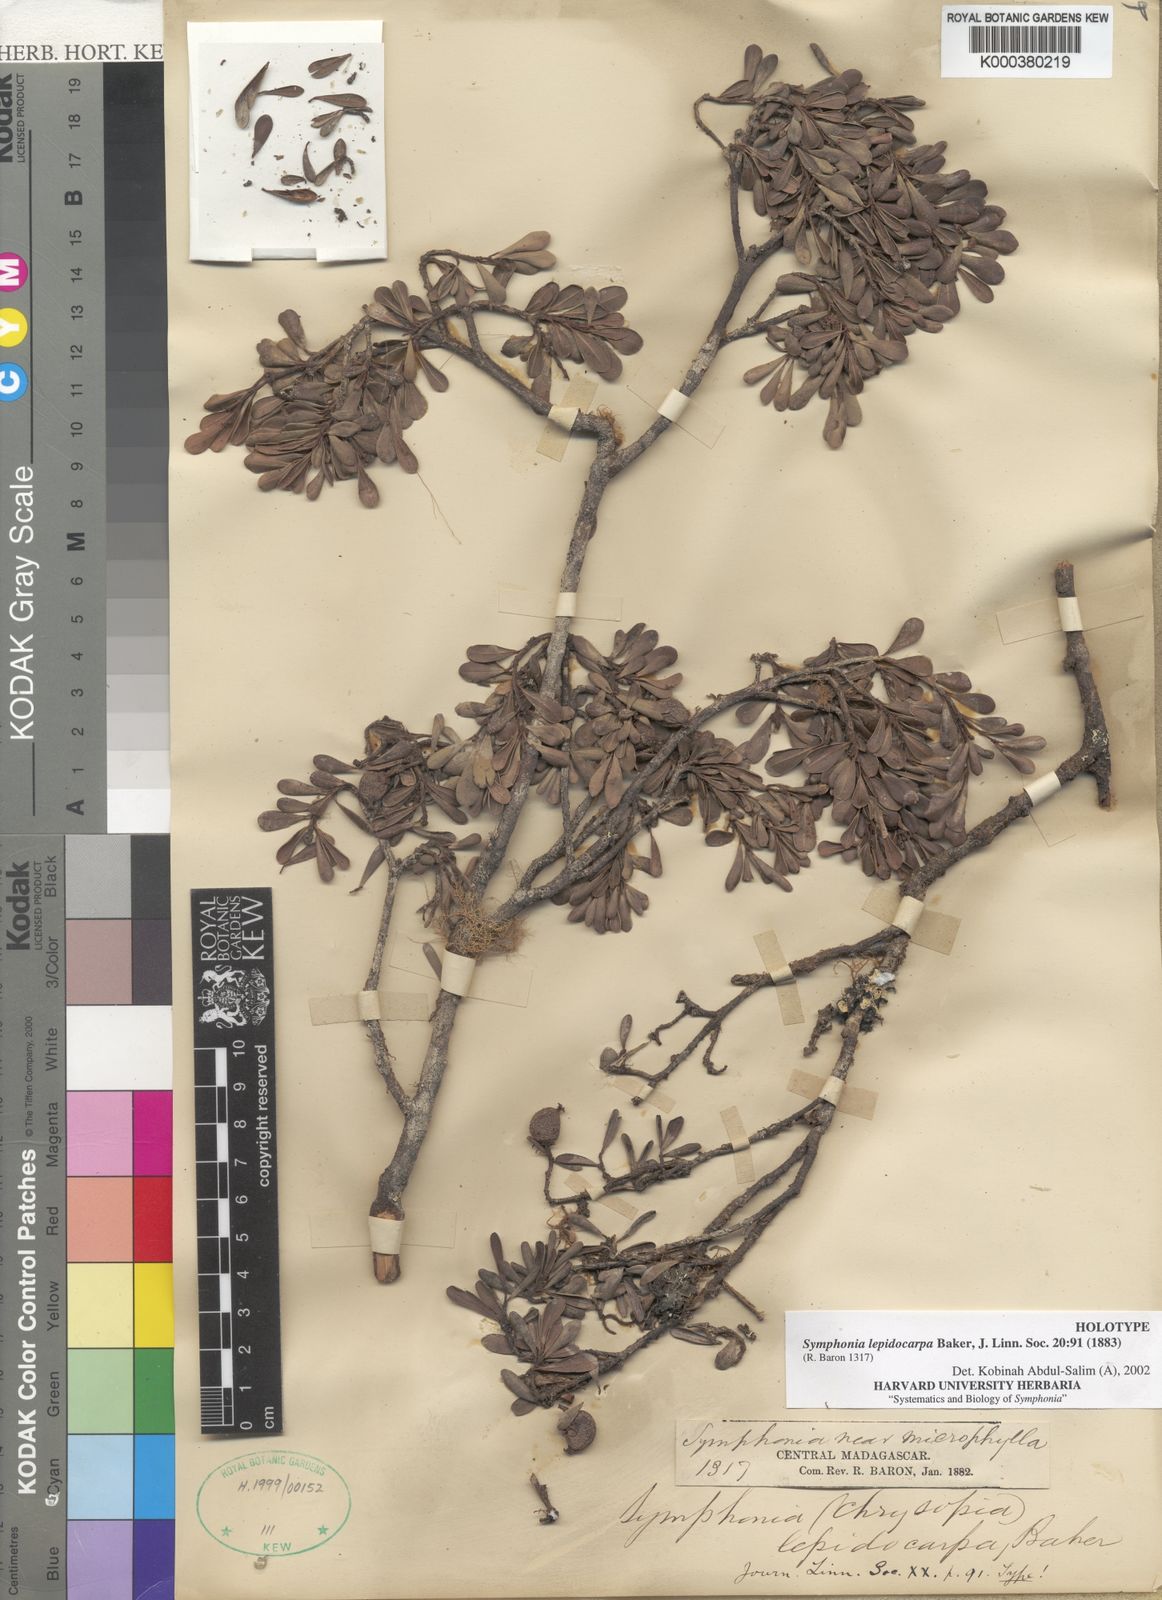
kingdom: Plantae
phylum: Tracheophyta
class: Magnoliopsida
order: Malpighiales
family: Clusiaceae
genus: Symphonia
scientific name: Symphonia lepidocarpa
